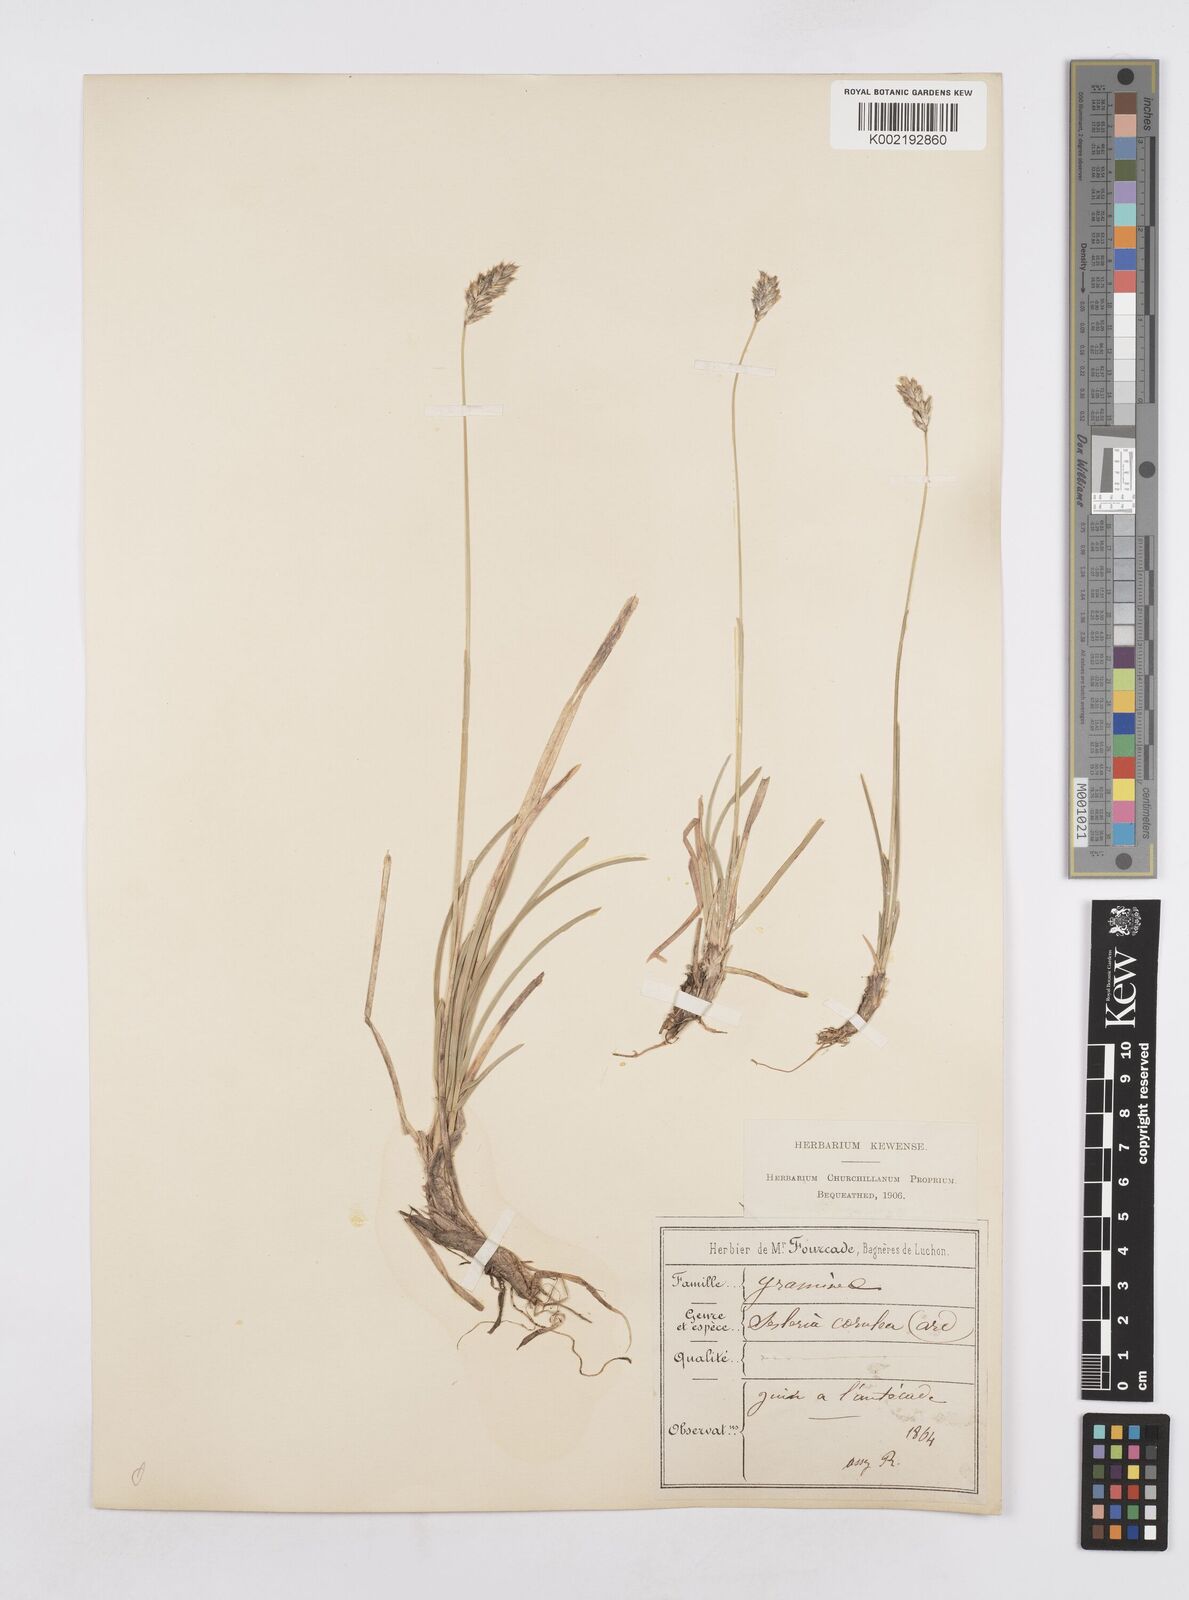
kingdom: Plantae
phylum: Tracheophyta
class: Liliopsida
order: Poales
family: Poaceae
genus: Sesleria
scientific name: Sesleria albicans
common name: Blue moor-grass
